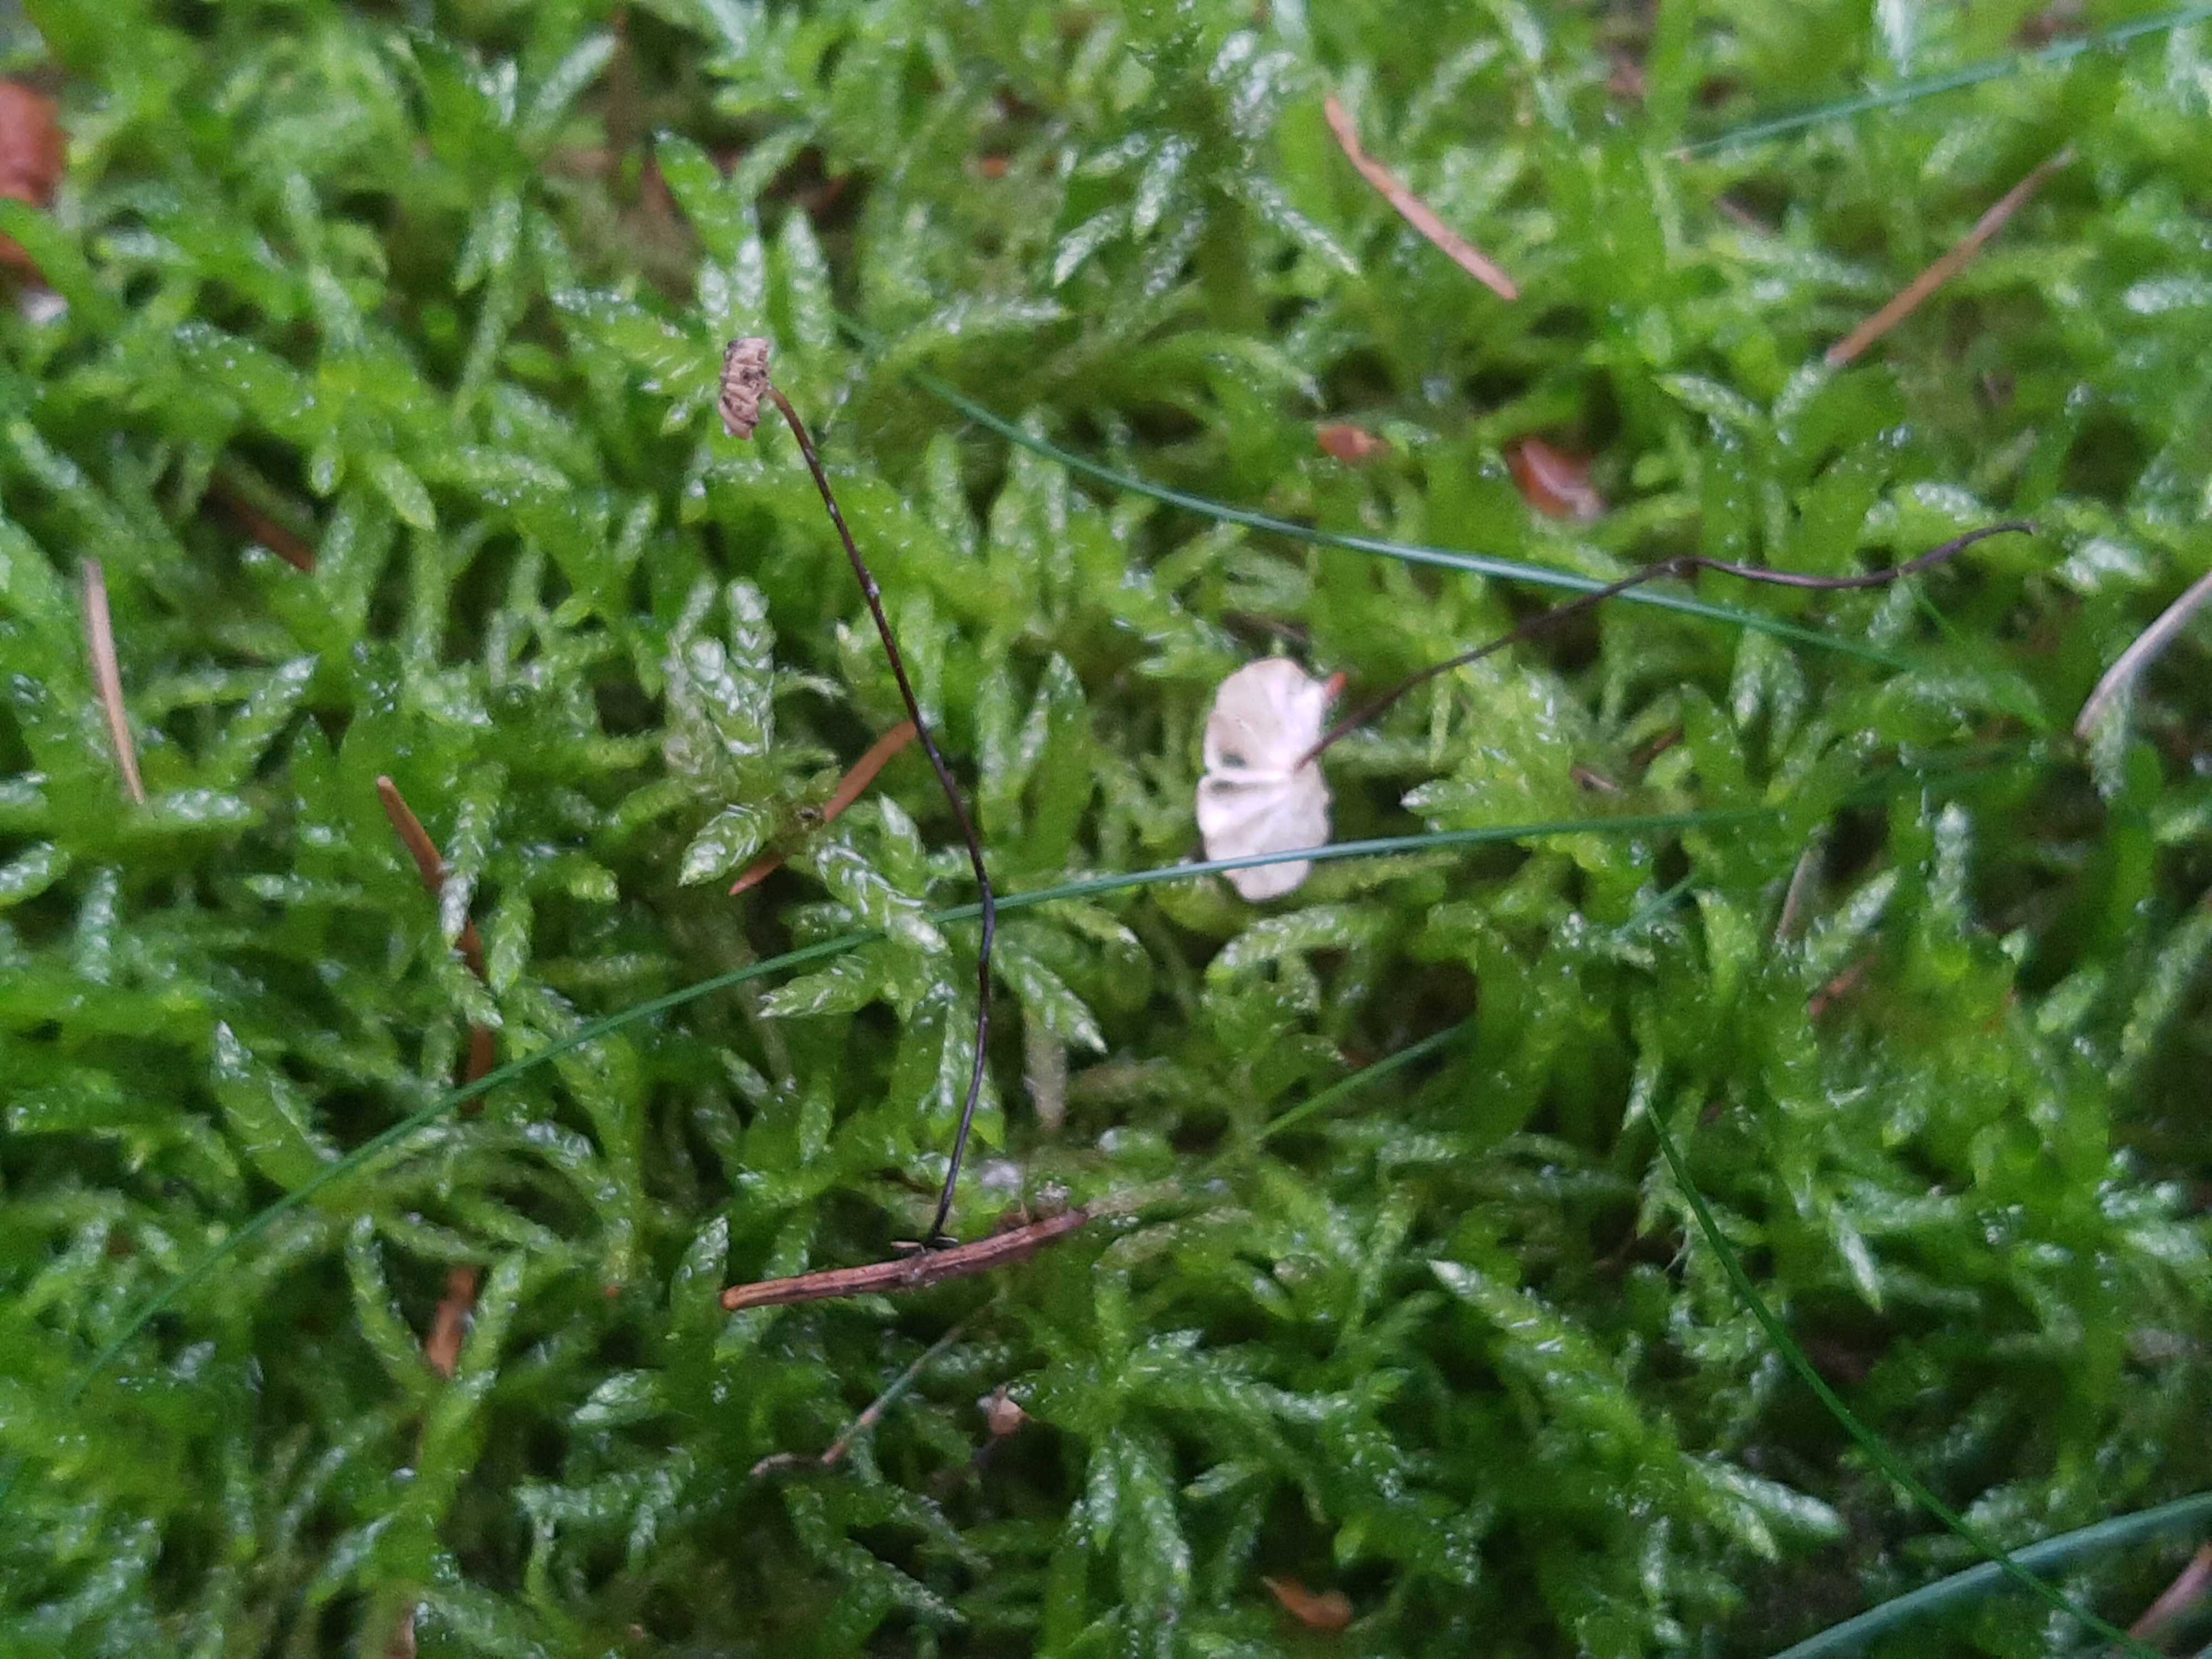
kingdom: Fungi
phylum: Basidiomycota
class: Agaricomycetes
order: Agaricales
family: Omphalotaceae
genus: Paragymnopus
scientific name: Paragymnopus perforans
